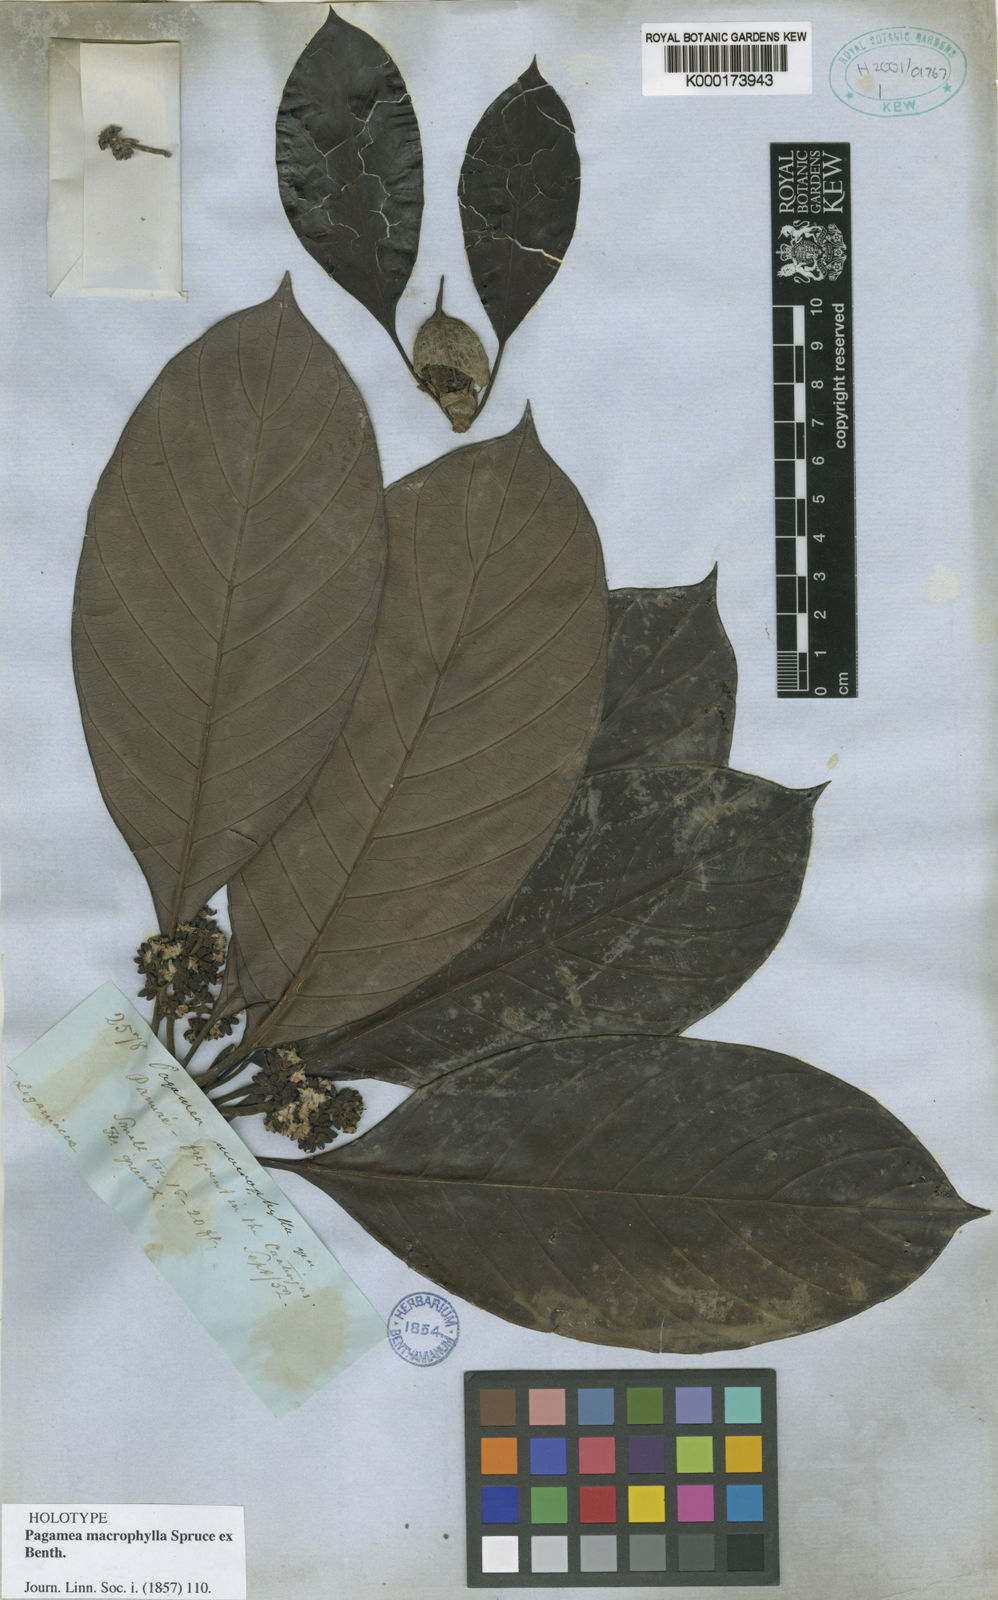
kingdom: Plantae
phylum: Tracheophyta
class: Magnoliopsida
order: Gentianales
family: Rubiaceae
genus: Pagamea
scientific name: Pagamea macrophylla
